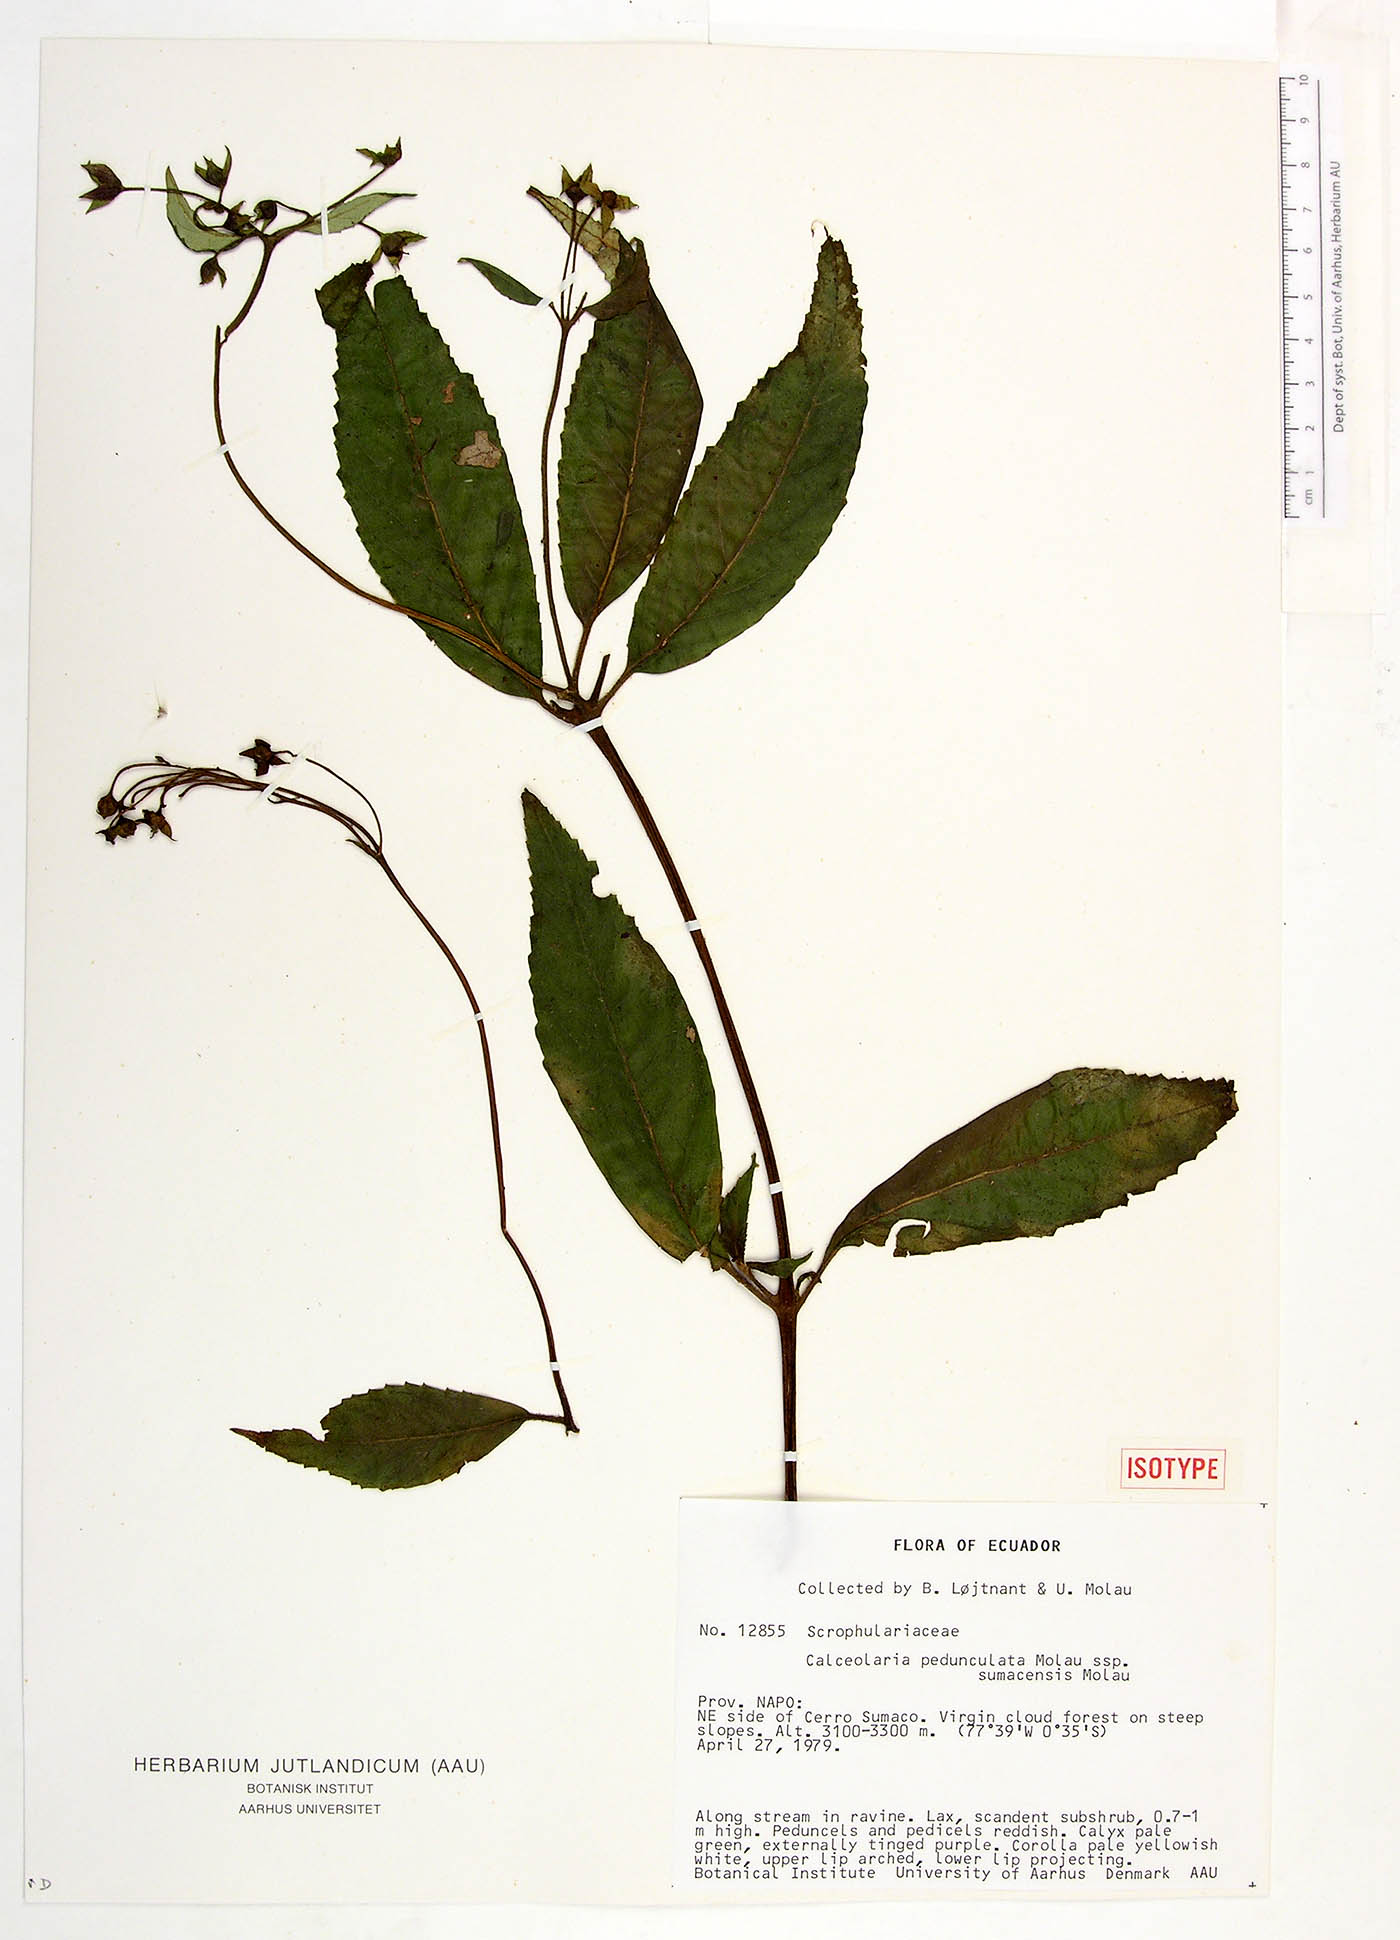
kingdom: Plantae
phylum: Tracheophyta
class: Magnoliopsida
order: Lamiales
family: Calceolariaceae
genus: Calceolaria
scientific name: Calceolaria pedunculata
